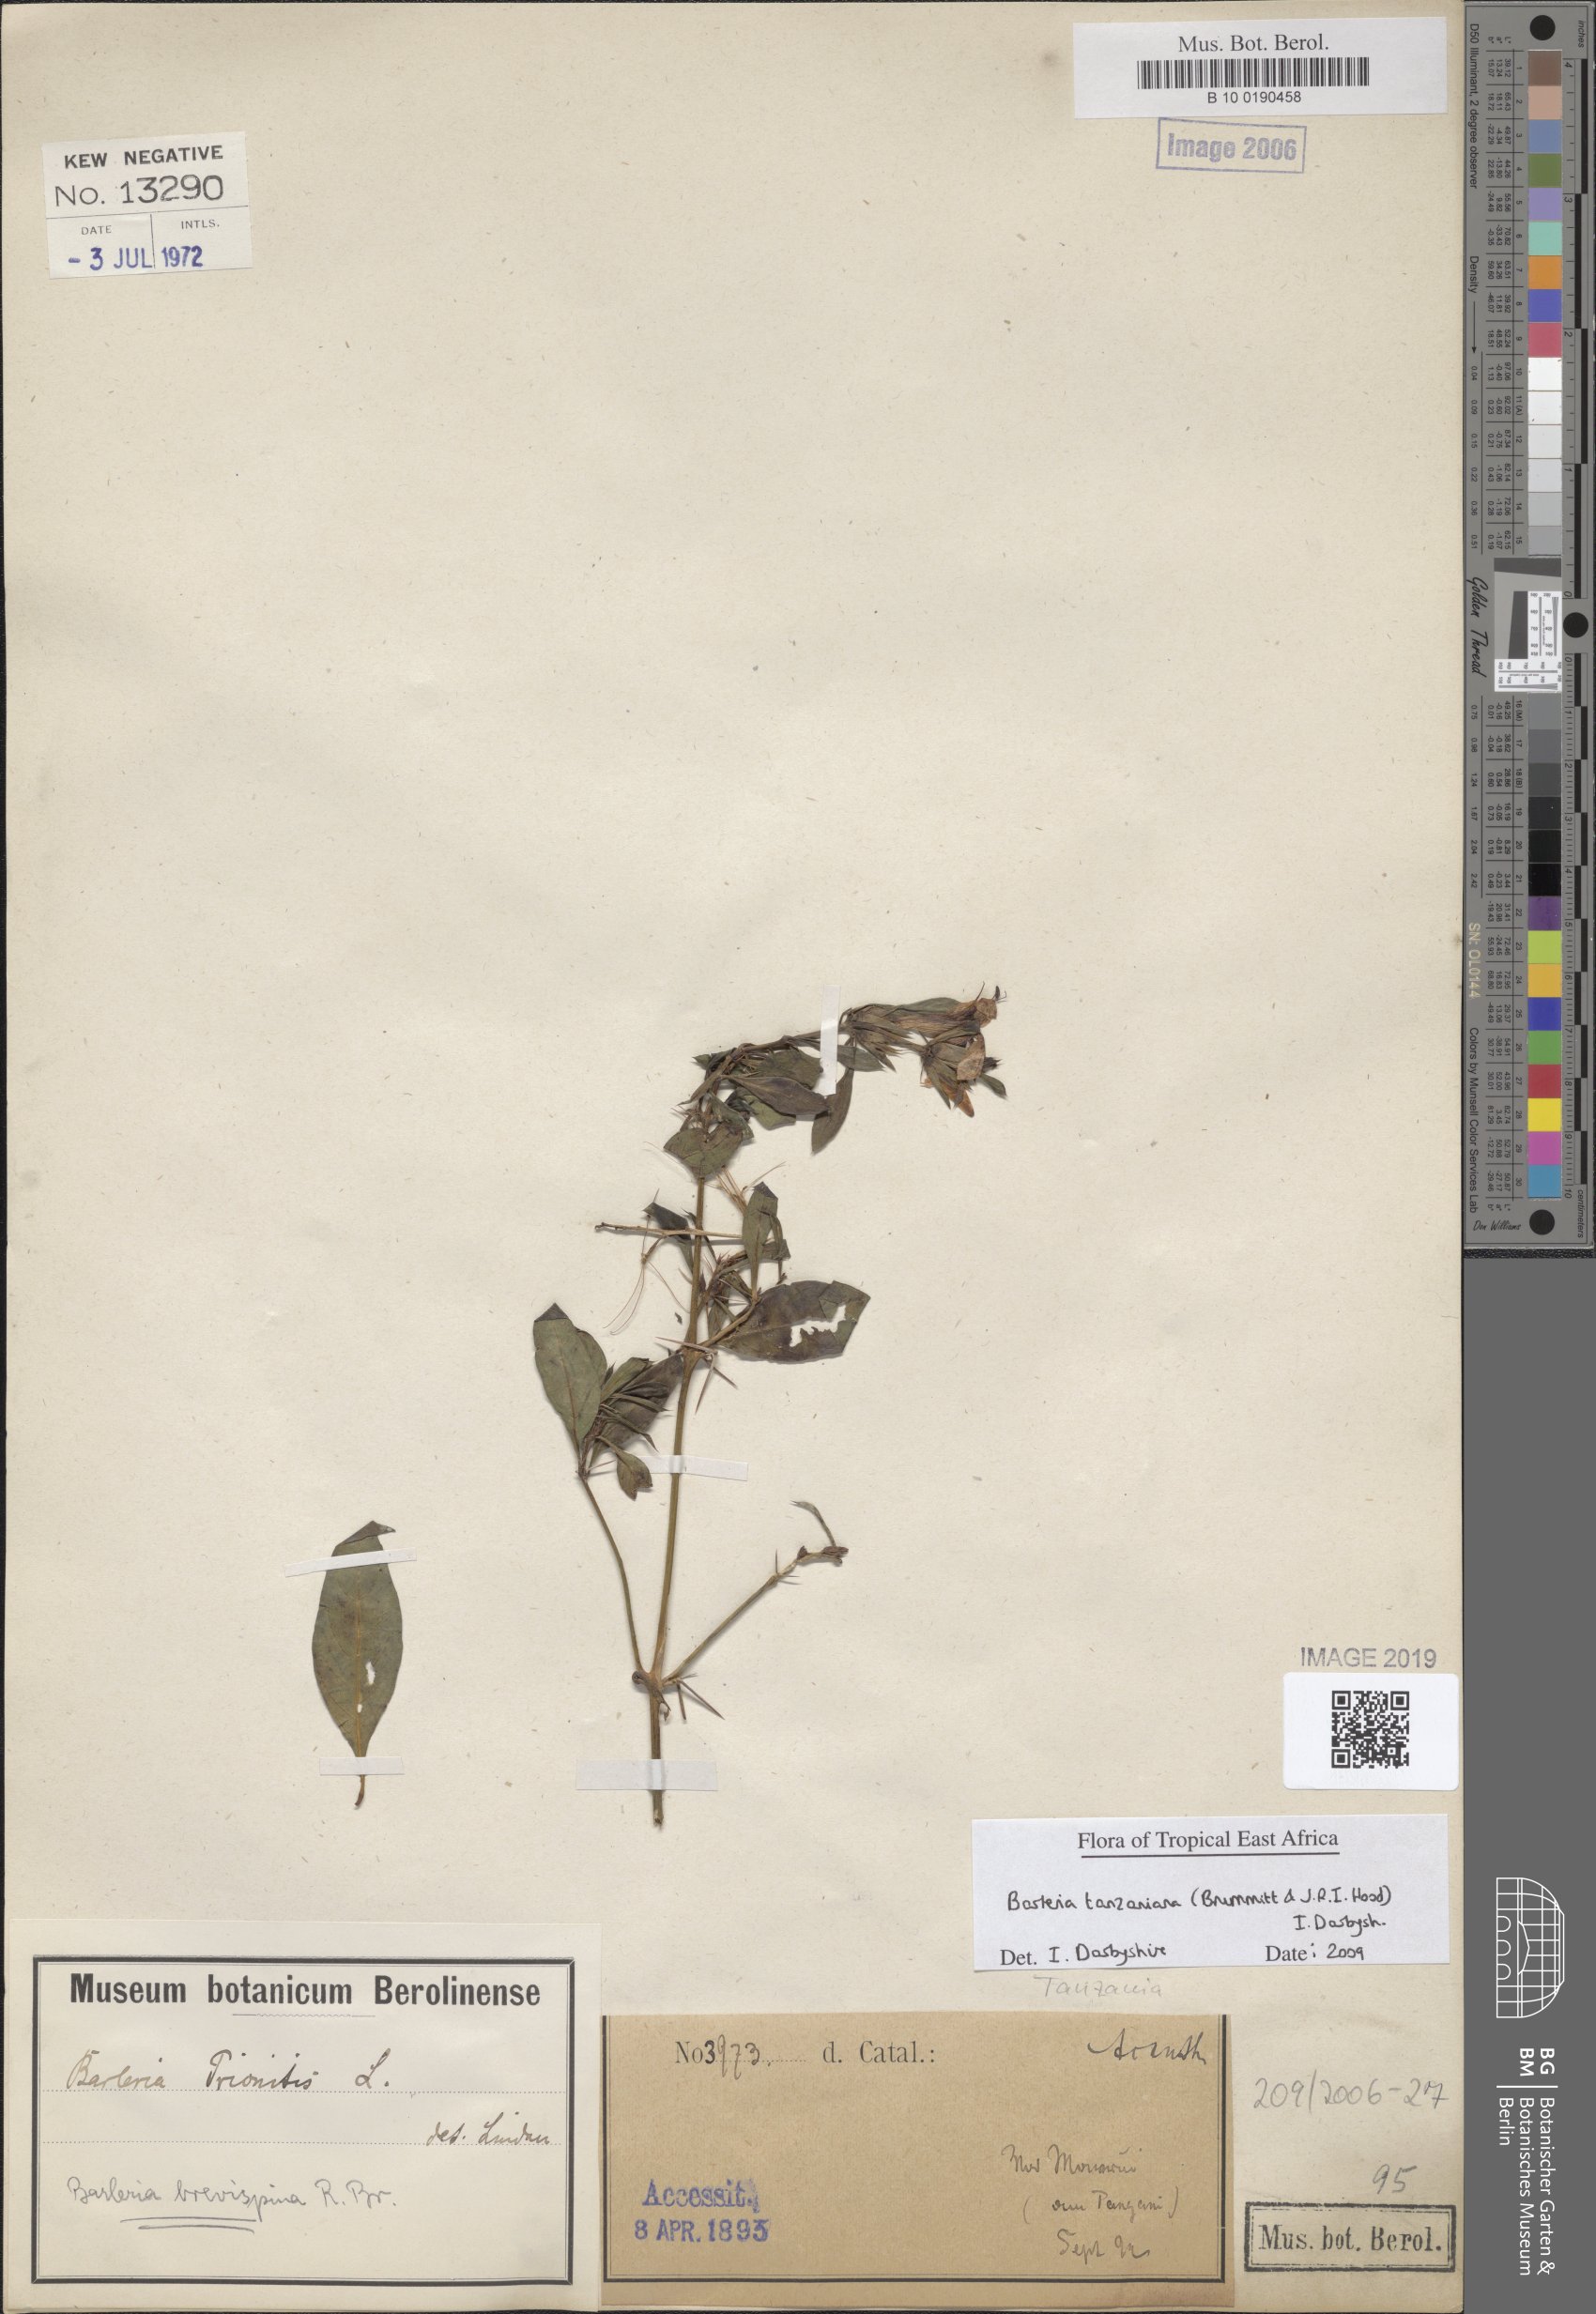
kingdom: Plantae
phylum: Tracheophyta
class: Magnoliopsida
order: Lamiales
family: Acanthaceae
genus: Barleria
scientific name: Barleria quadrispina
